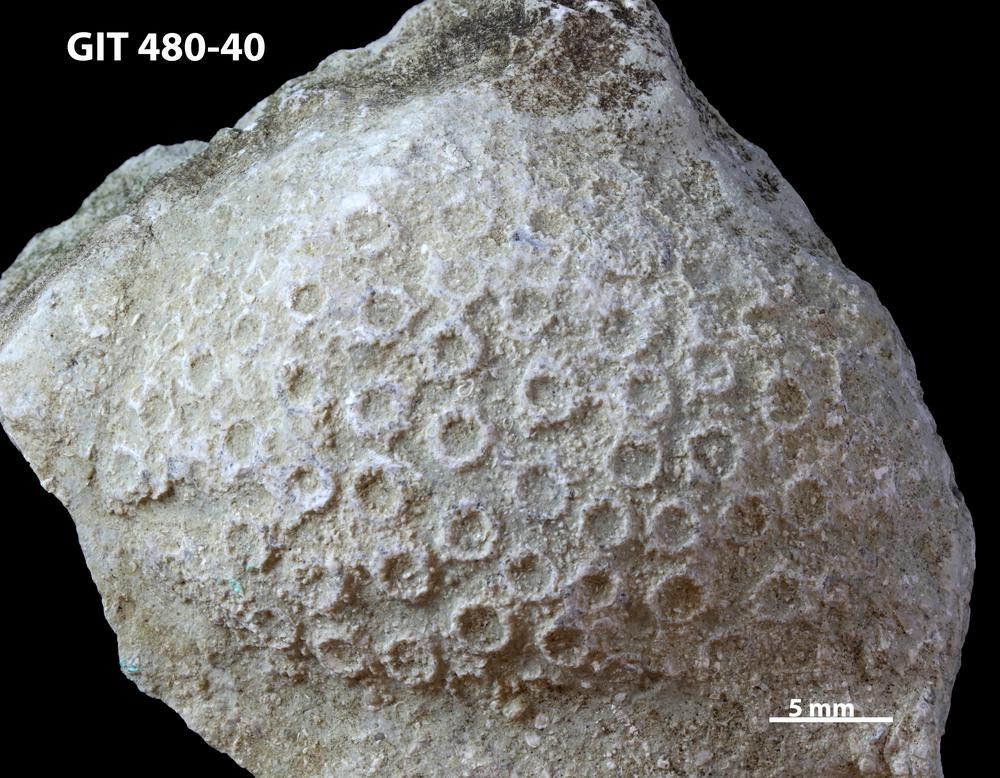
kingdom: Animalia
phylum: Xenacoelomorpha
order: Acoela
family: Proporidae
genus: Propora
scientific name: Propora
